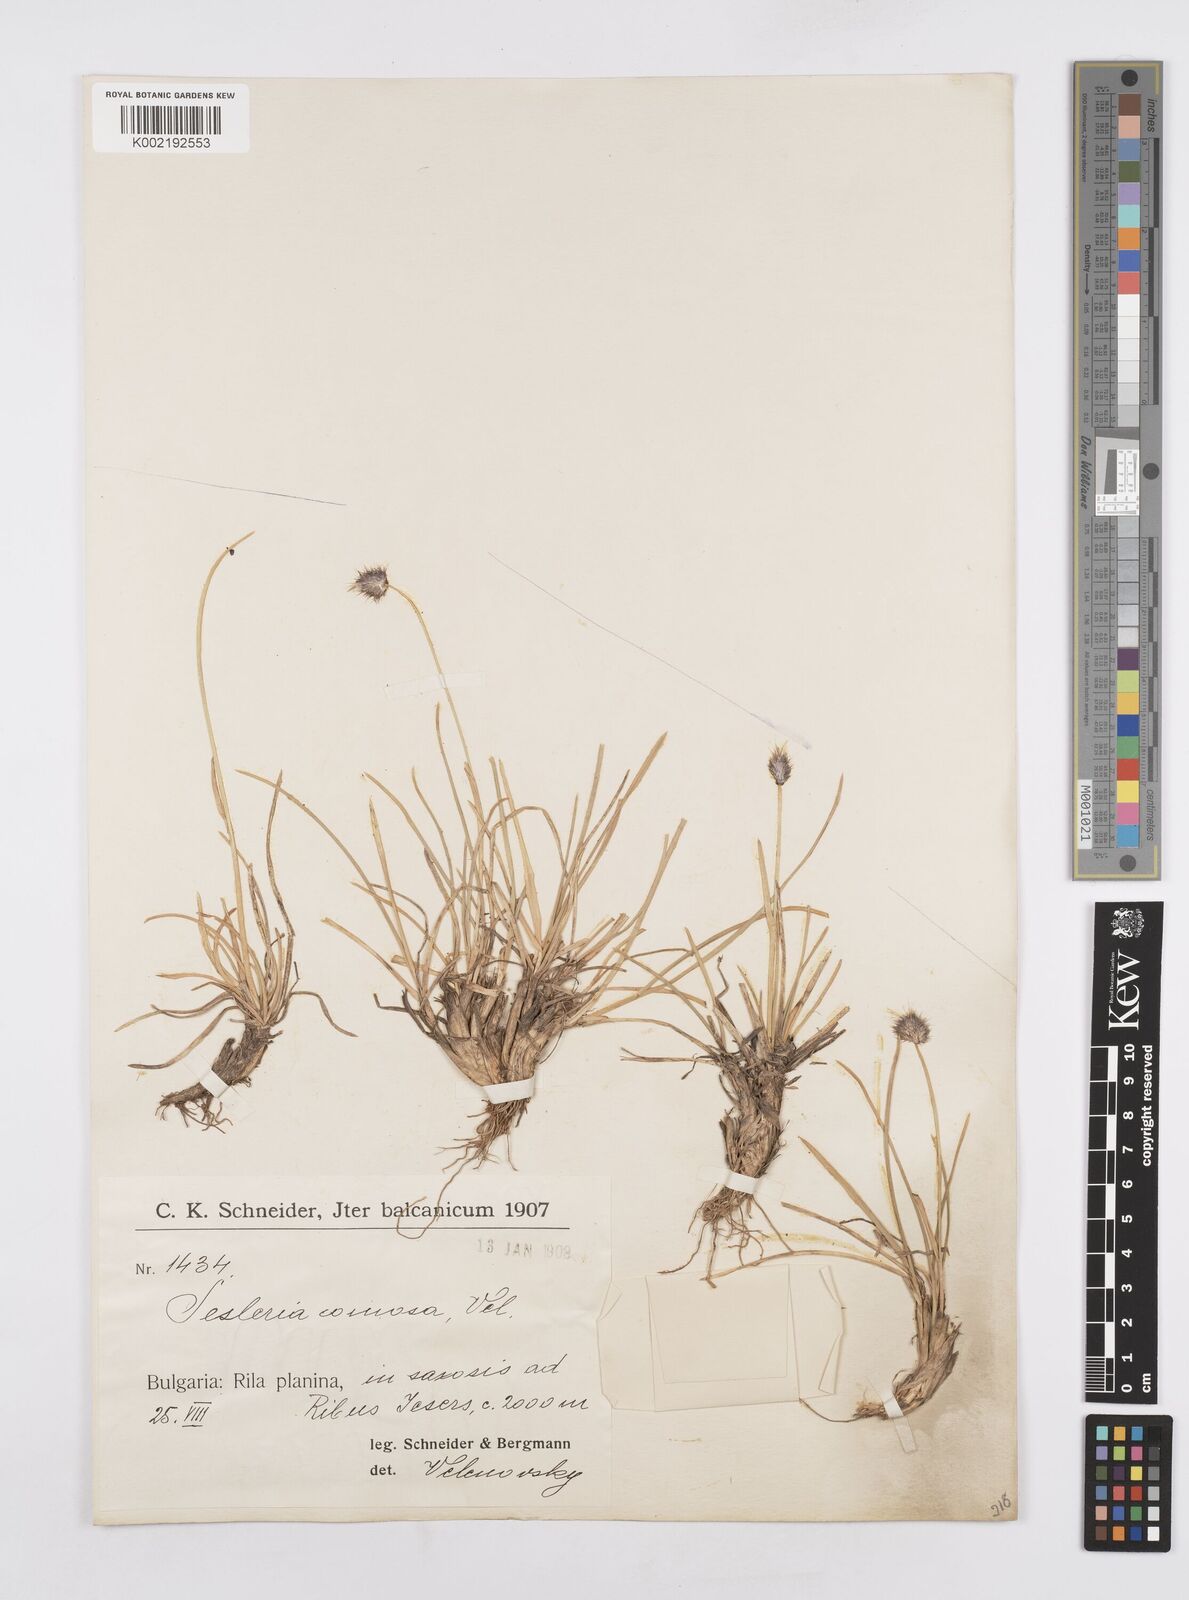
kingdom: Plantae
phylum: Tracheophyta
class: Liliopsida
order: Poales
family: Poaceae
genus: Sesleria
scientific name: Sesleria comosa
